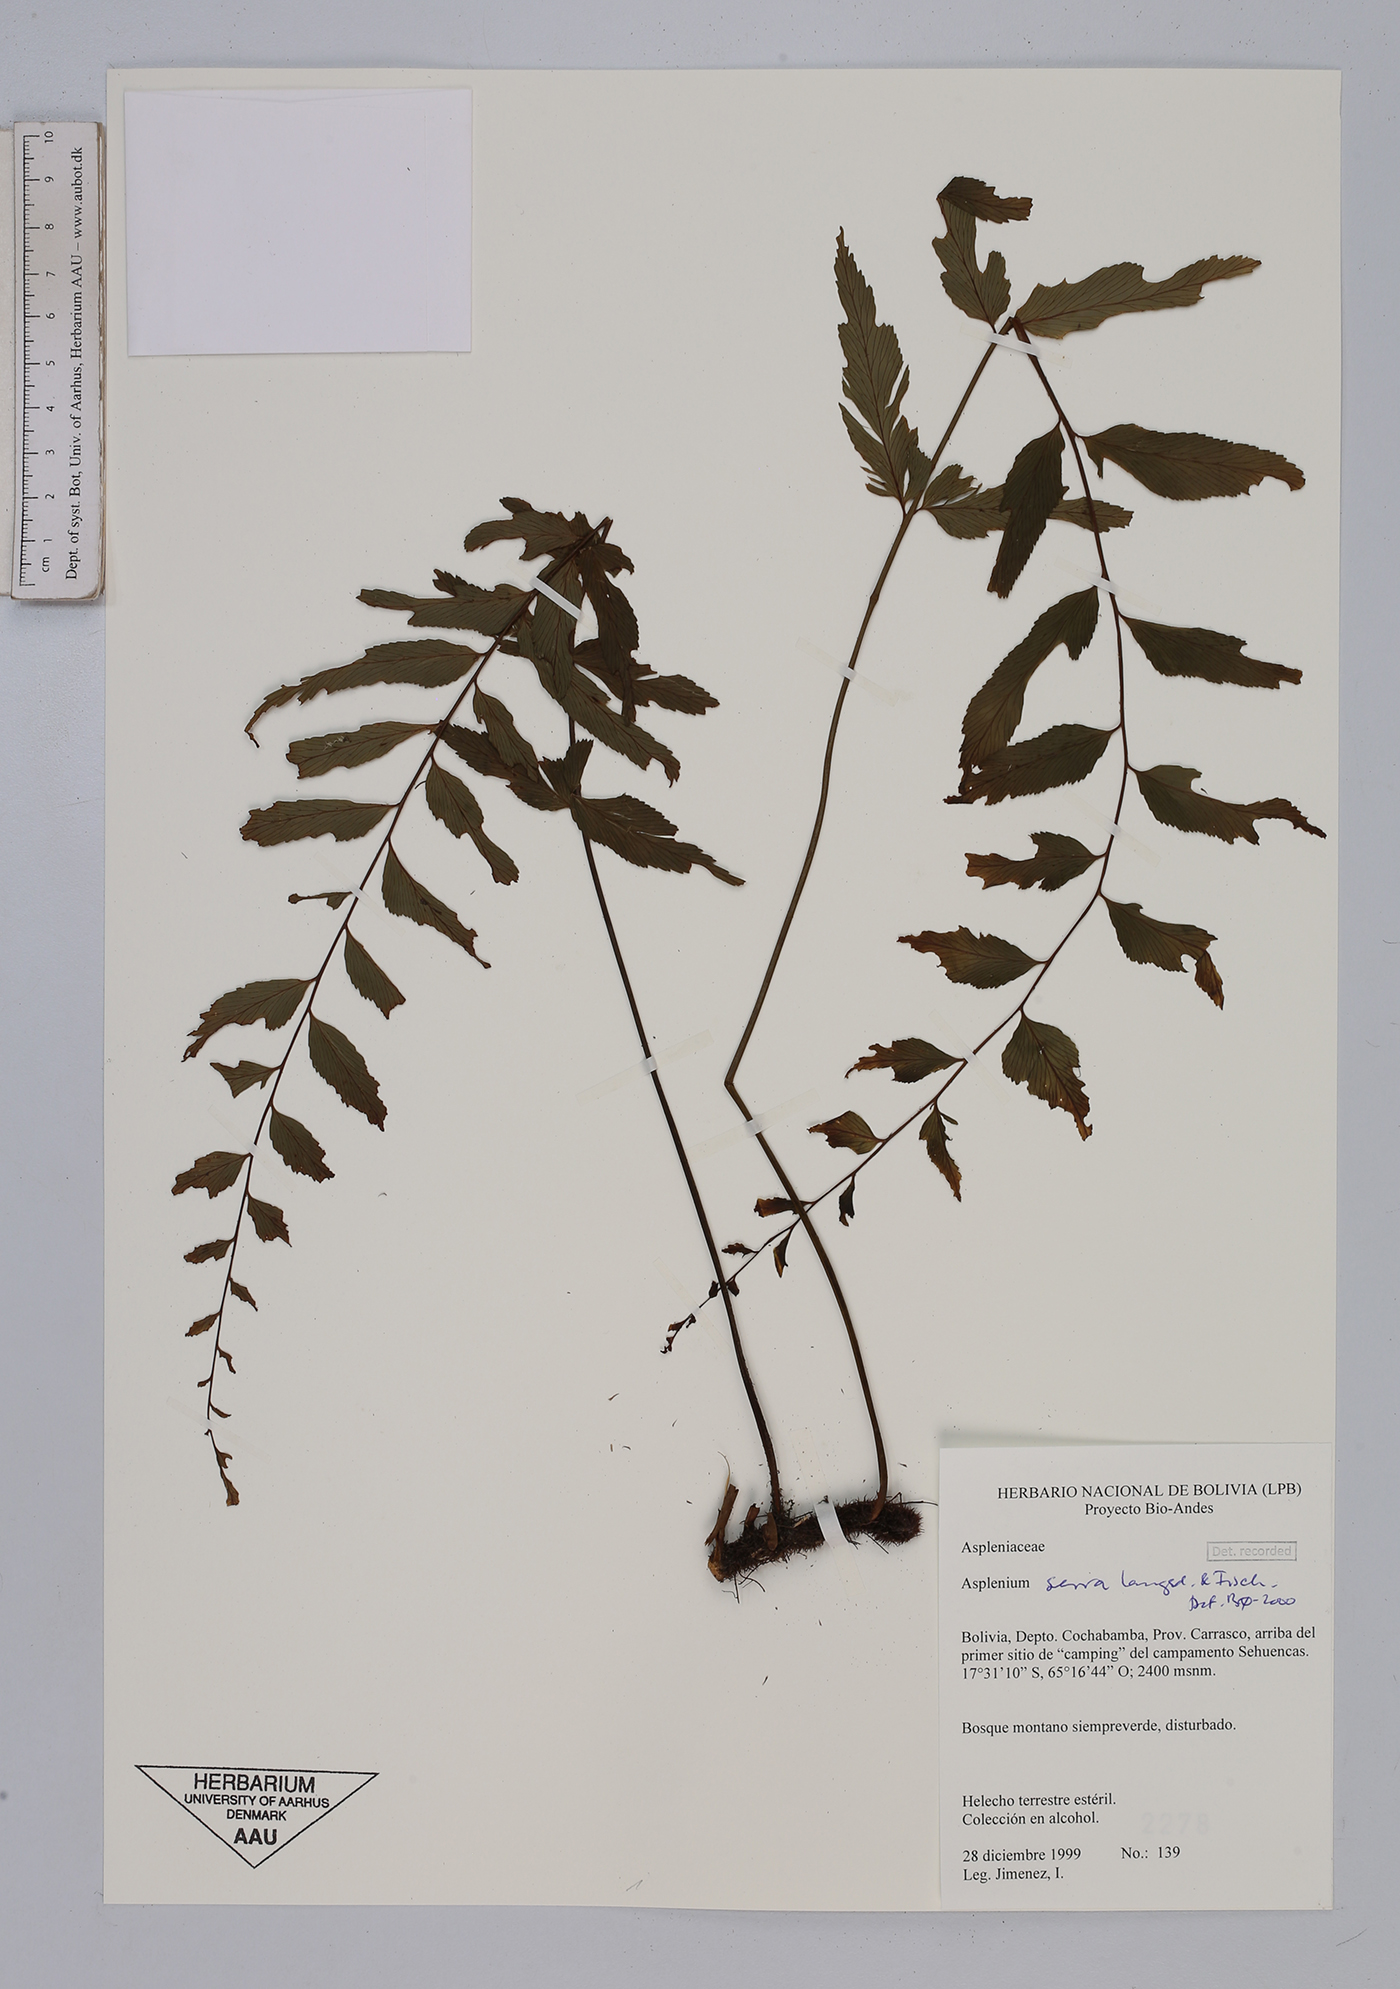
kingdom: Plantae
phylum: Tracheophyta
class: Polypodiopsida
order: Polypodiales
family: Aspleniaceae
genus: Asplenium
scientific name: Asplenium serra
